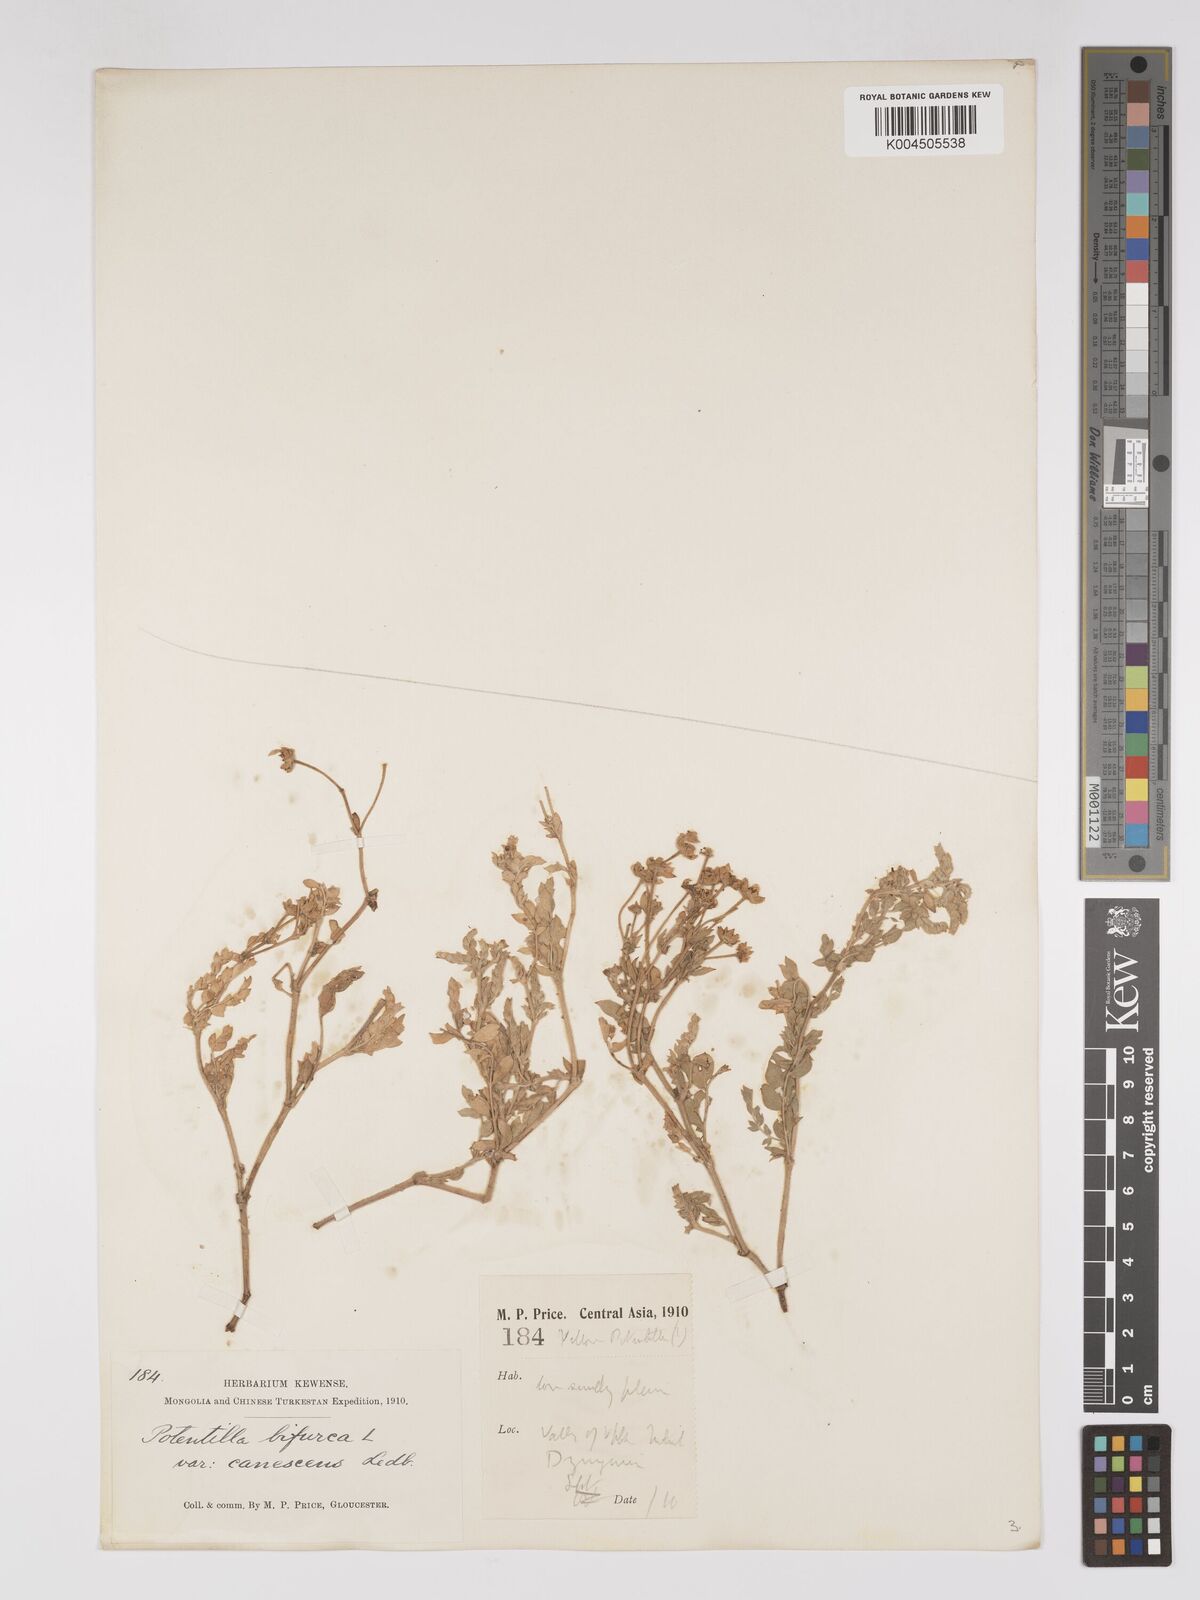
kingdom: Plantae
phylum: Tracheophyta
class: Magnoliopsida
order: Rosales
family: Rosaceae
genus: Sibbaldianthe
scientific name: Sibbaldianthe bifurca
